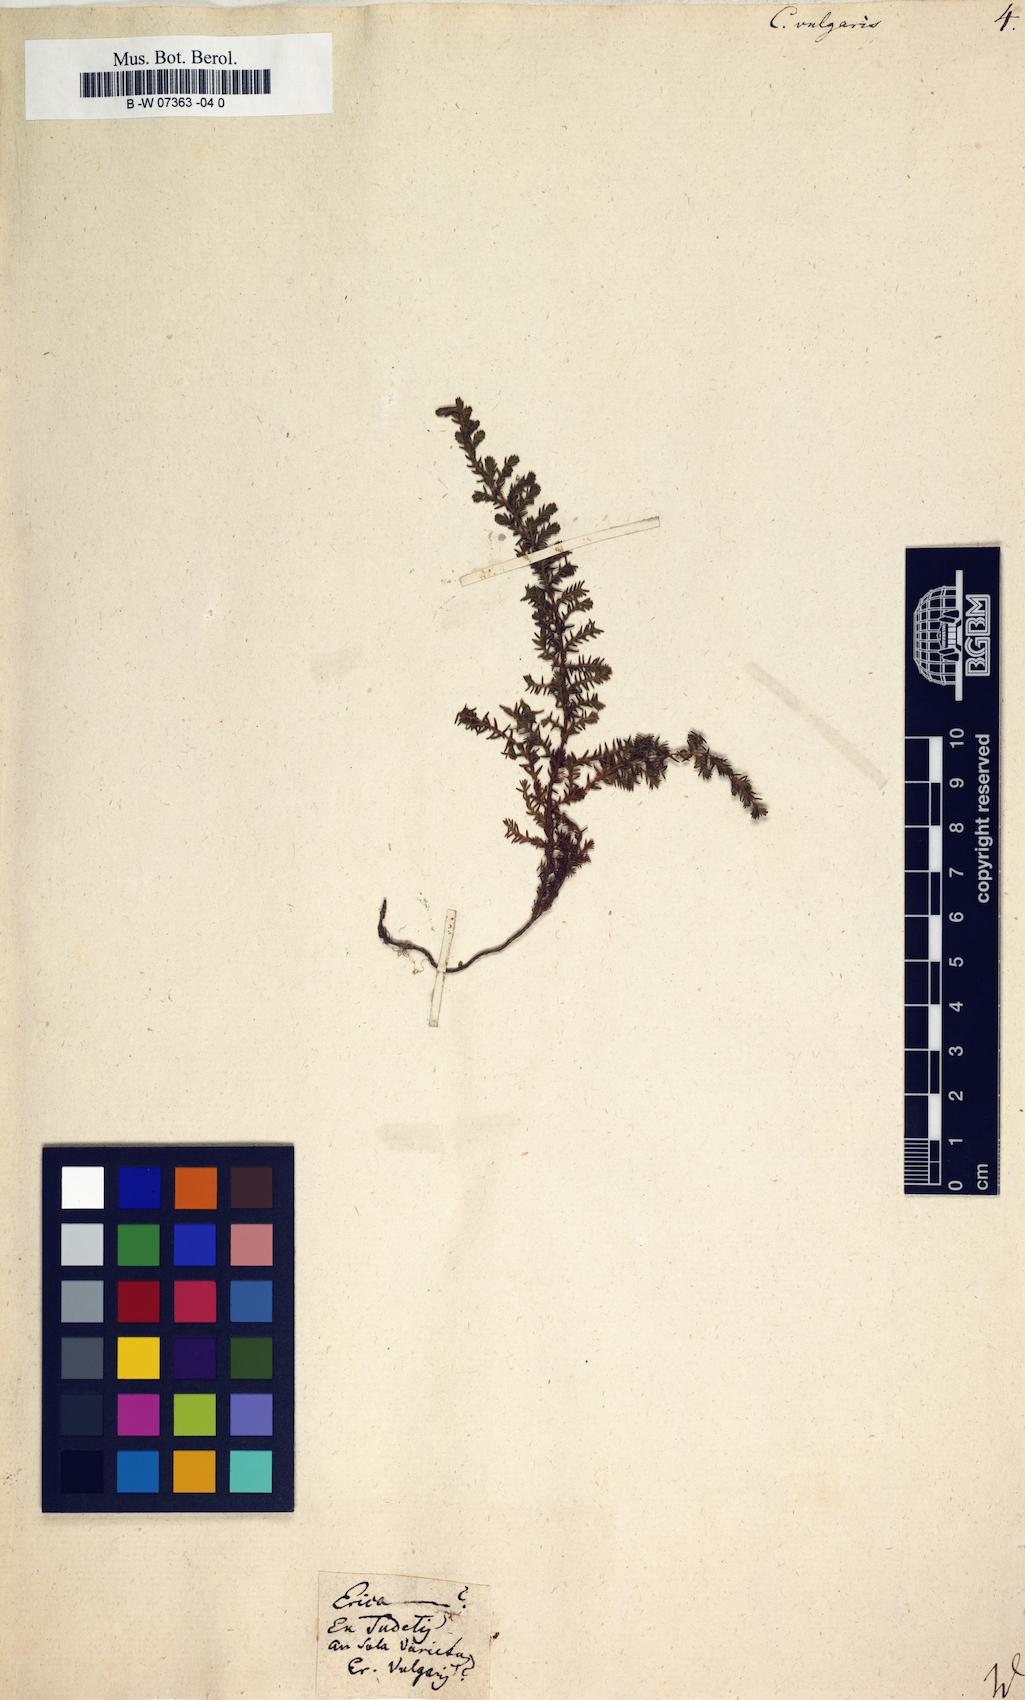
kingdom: Plantae
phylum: Tracheophyta
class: Magnoliopsida
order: Ericales
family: Ericaceae
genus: Calluna
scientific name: Calluna vulgaris
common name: Heather
